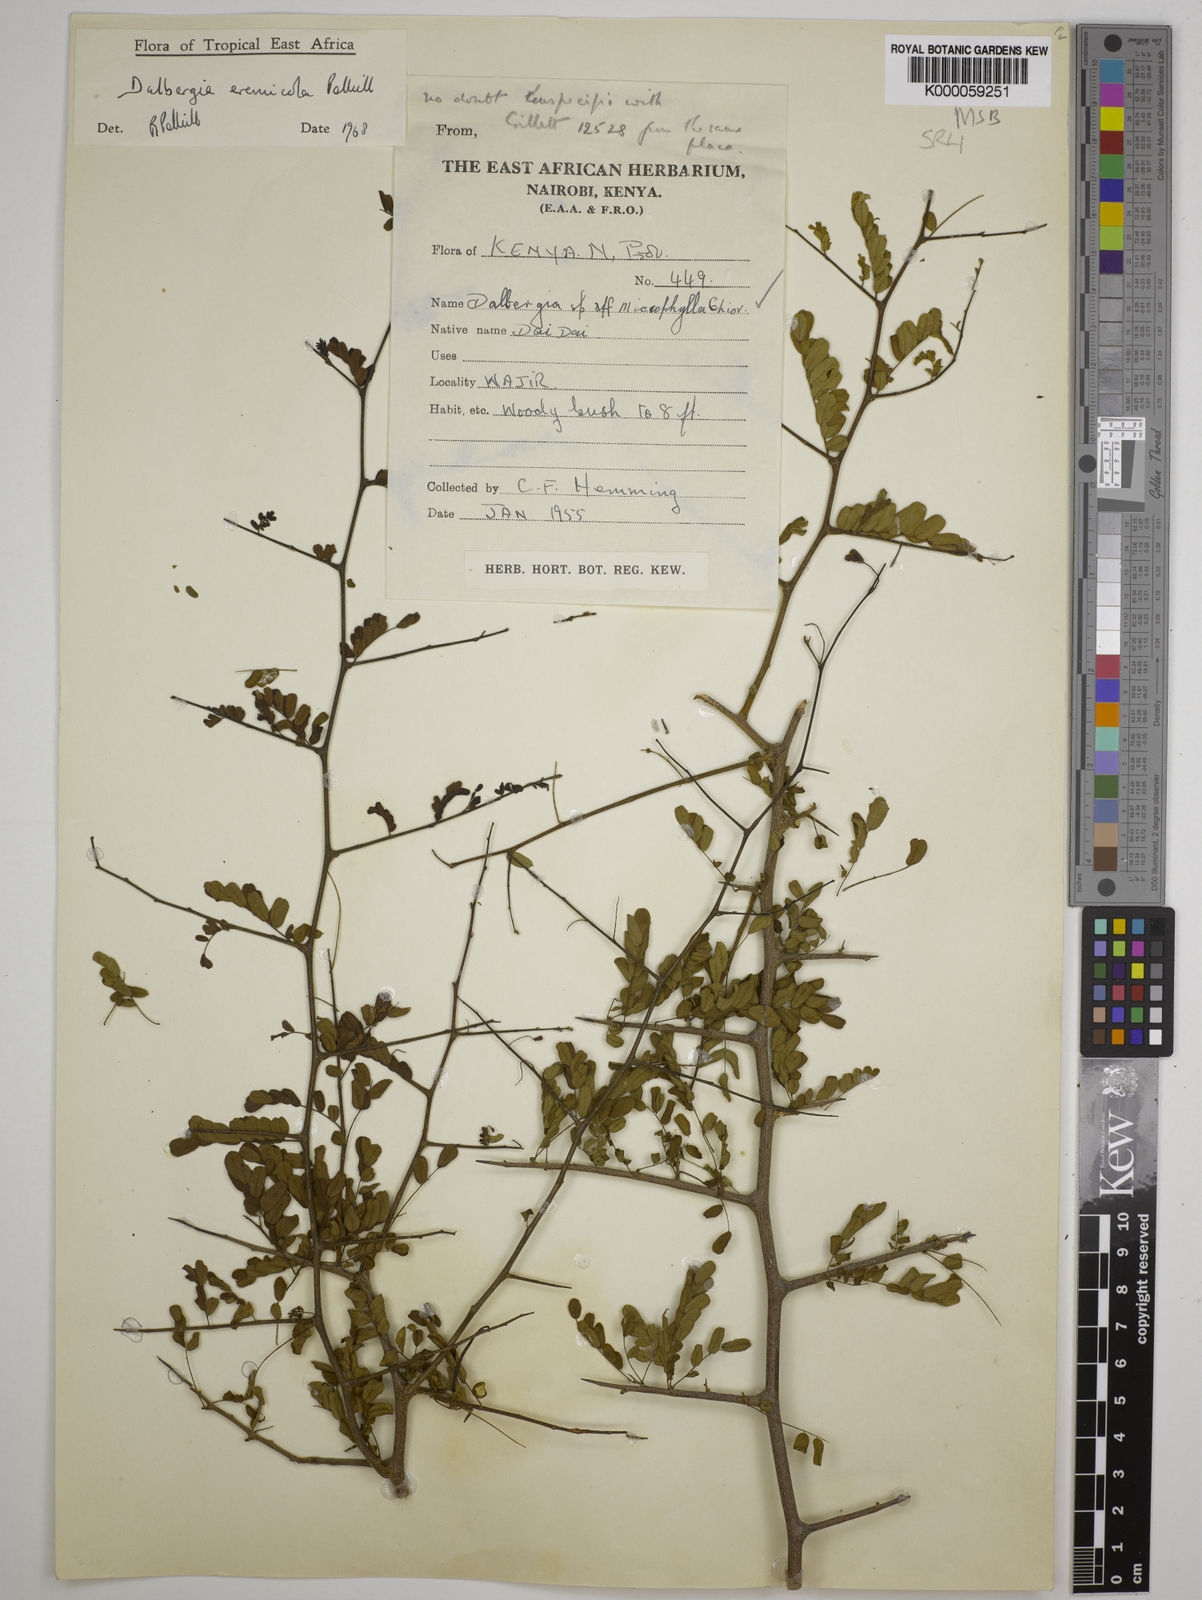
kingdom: Plantae
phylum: Tracheophyta
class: Magnoliopsida
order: Fabales
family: Fabaceae
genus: Dalbergia
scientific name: Dalbergia eremicola
